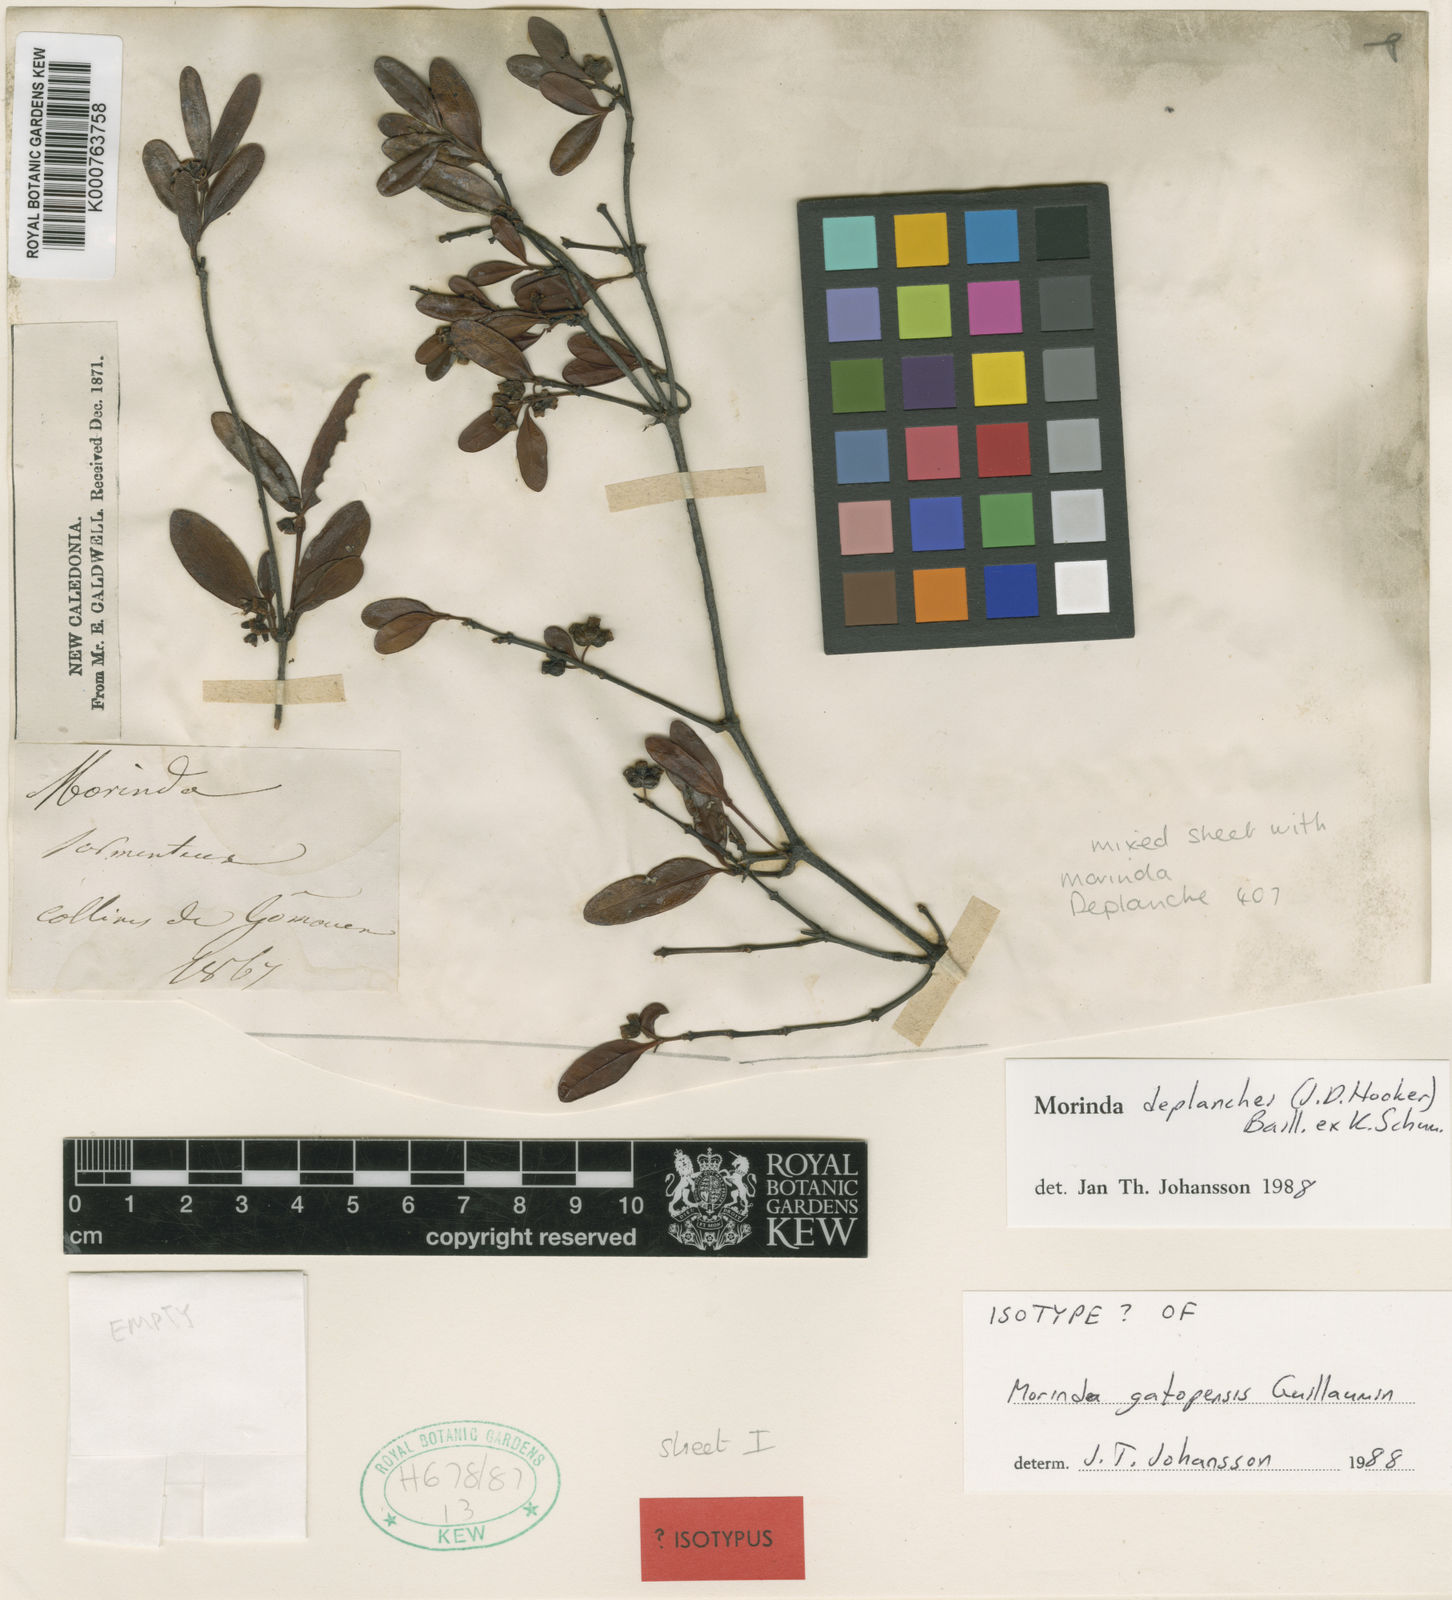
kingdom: Plantae
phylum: Tracheophyta
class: Magnoliopsida
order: Gentianales
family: Rubiaceae
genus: Gynochthodes
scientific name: Gynochthodes deplanchei
